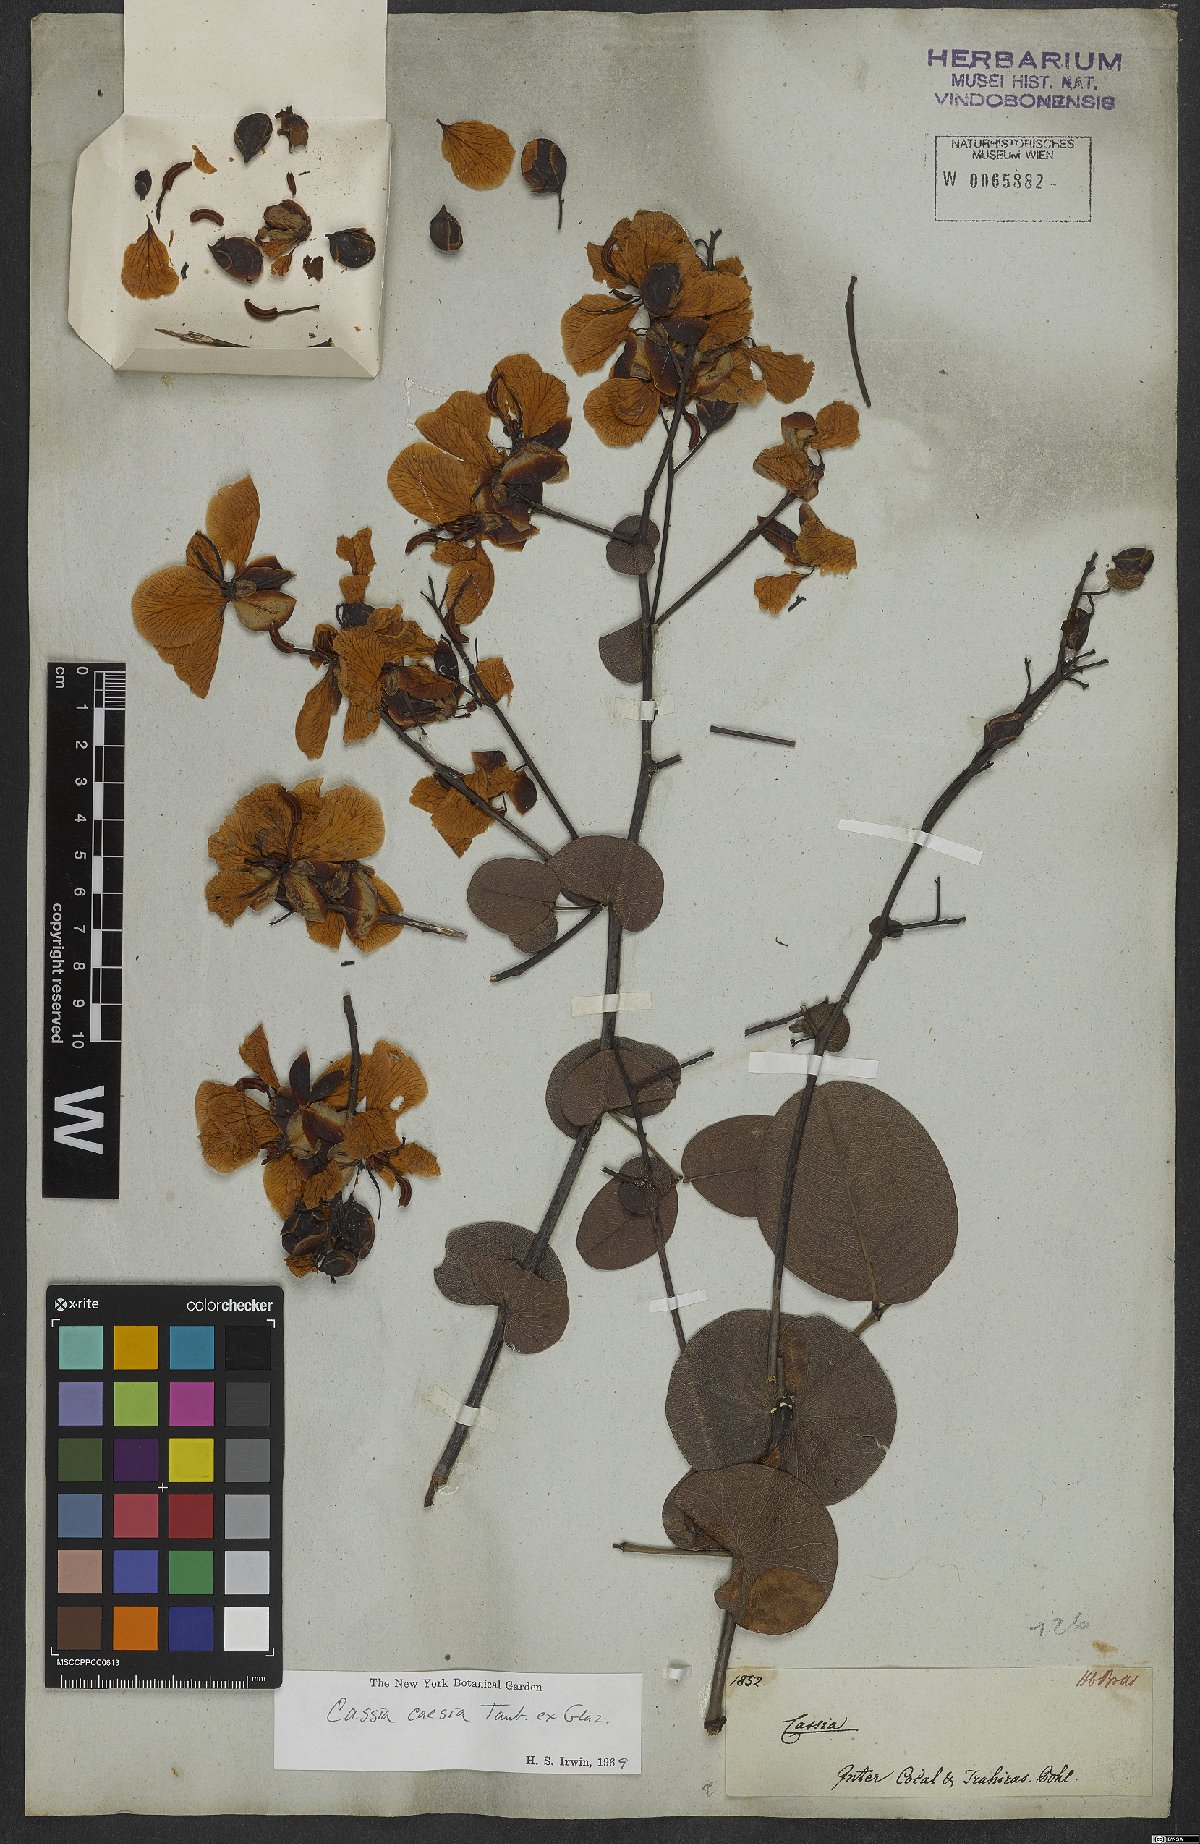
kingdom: Plantae
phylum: Tracheophyta
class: Magnoliopsida
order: Fabales
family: Fabaceae
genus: Senna
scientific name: Senna corifolia
